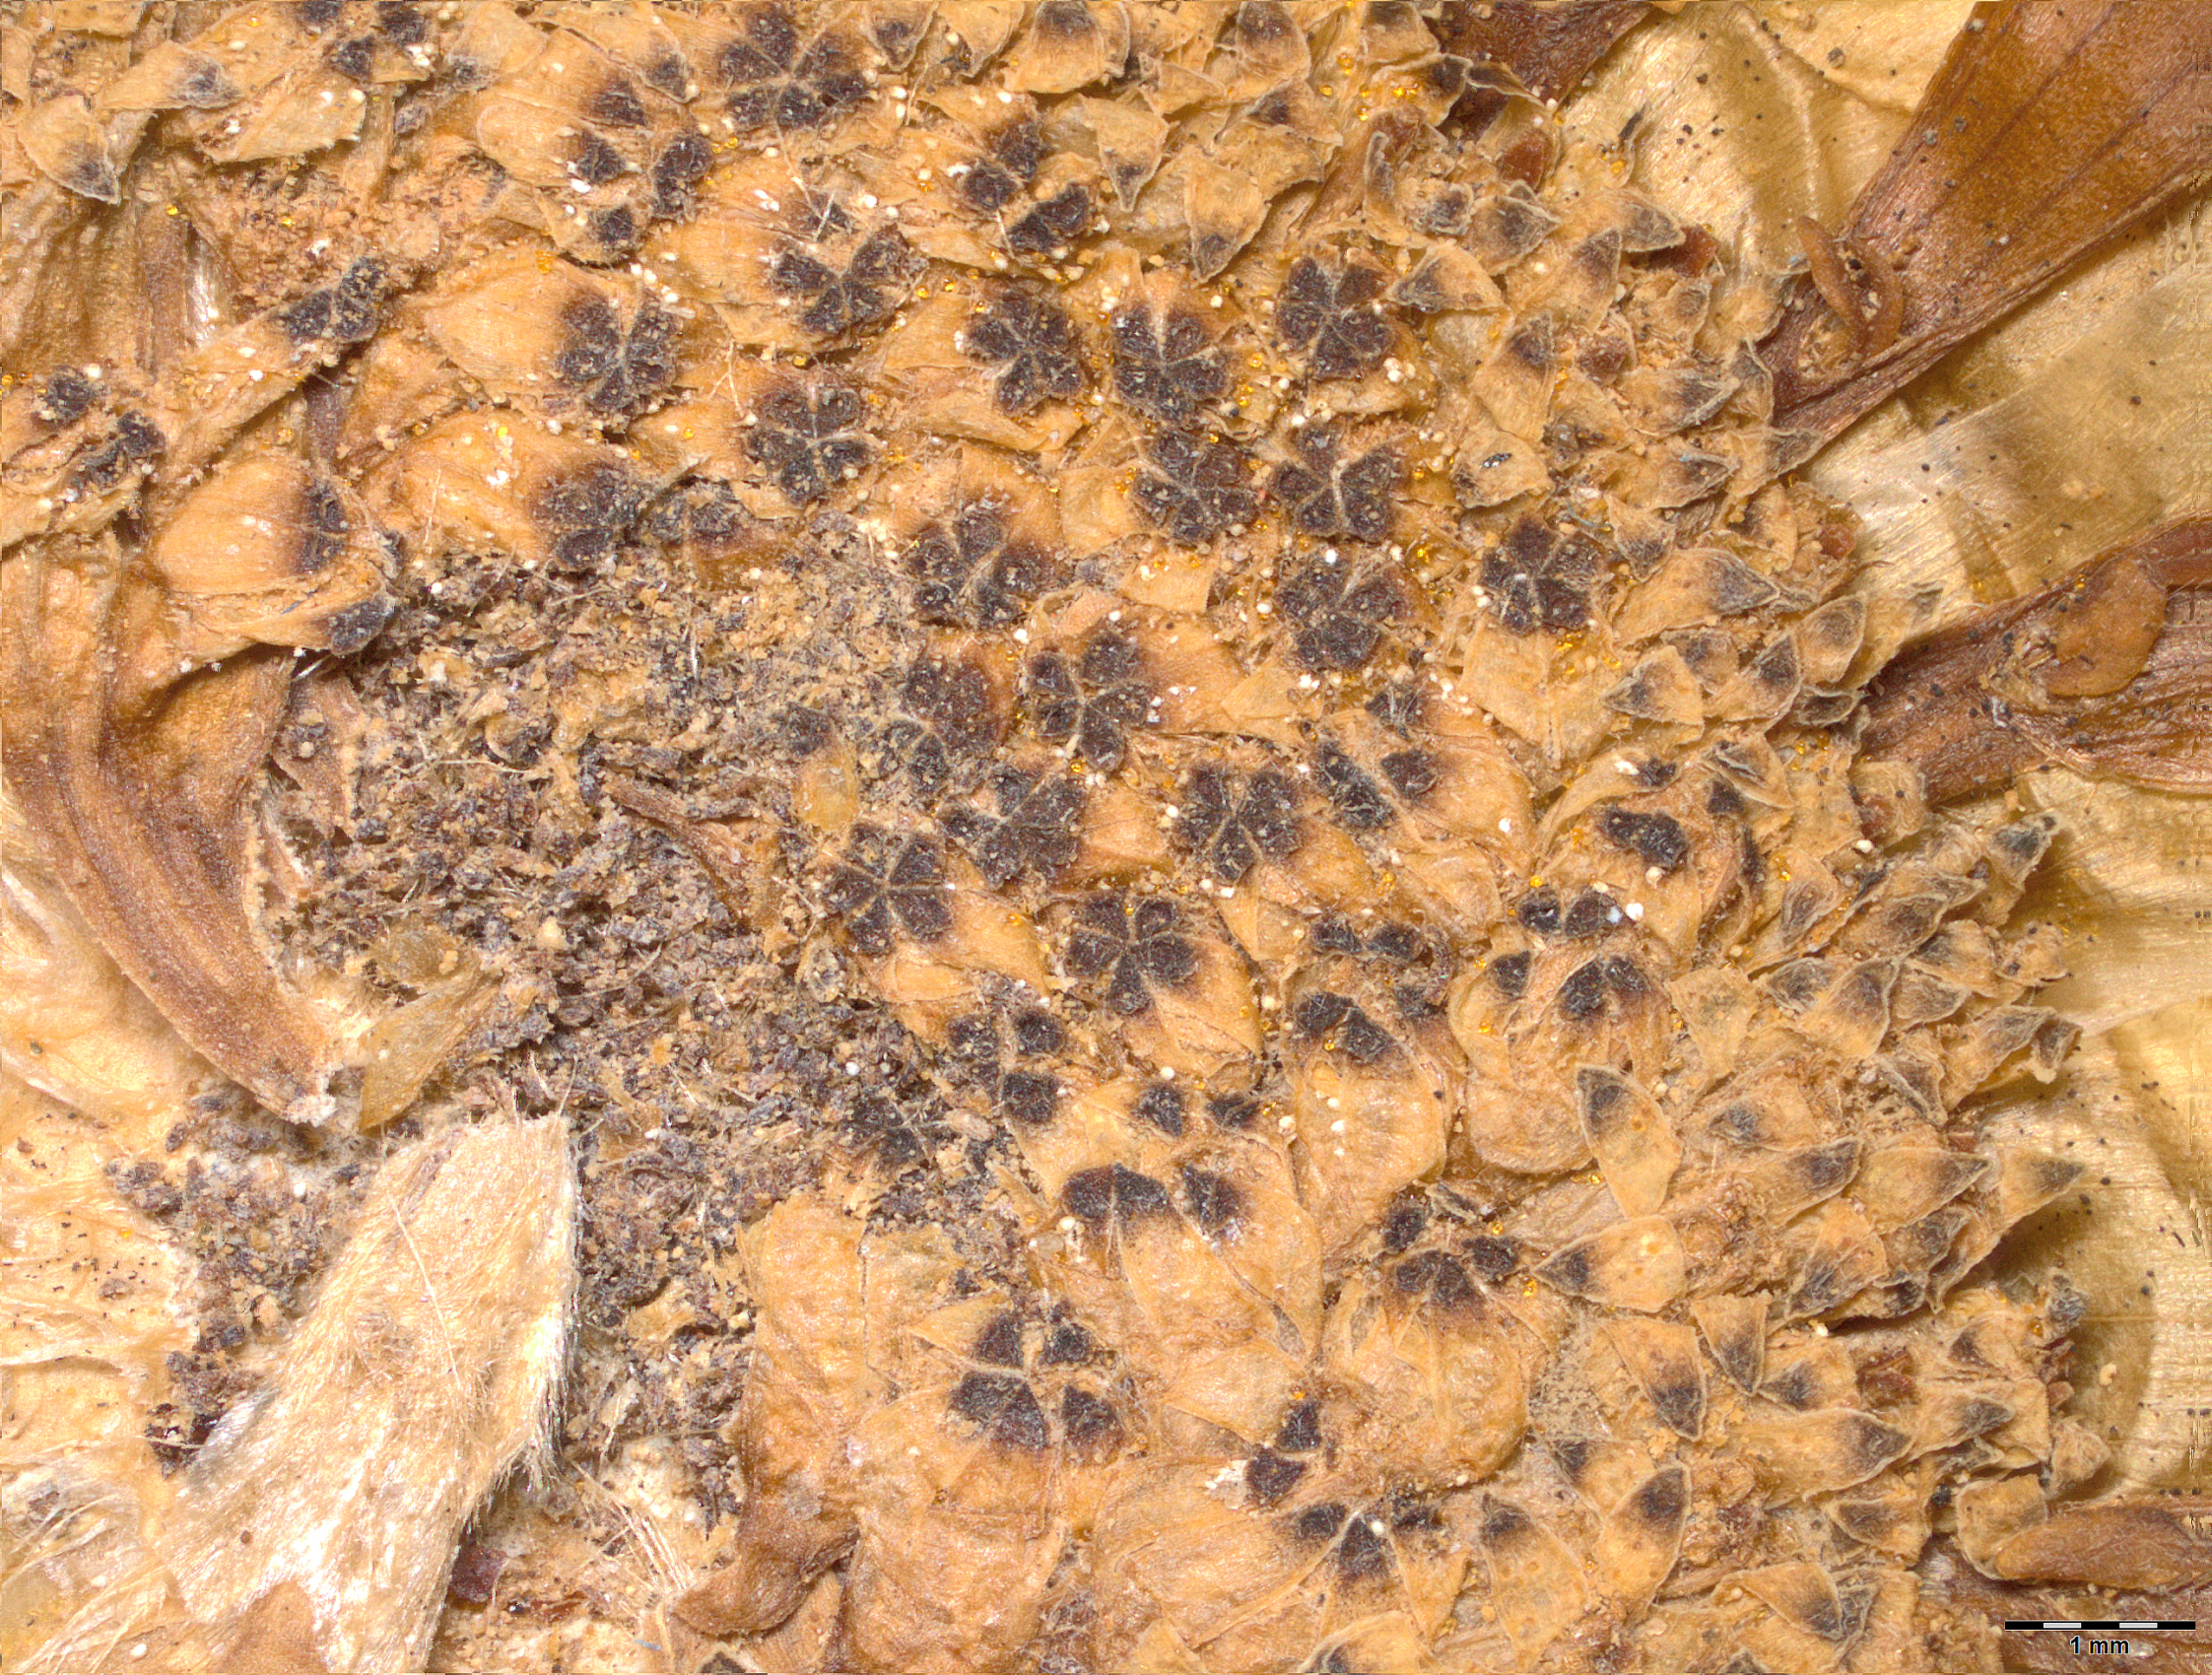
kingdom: Plantae
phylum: Tracheophyta
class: Magnoliopsida
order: Asterales
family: Asteraceae
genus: Arctotis
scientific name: Arctotis laciniata
